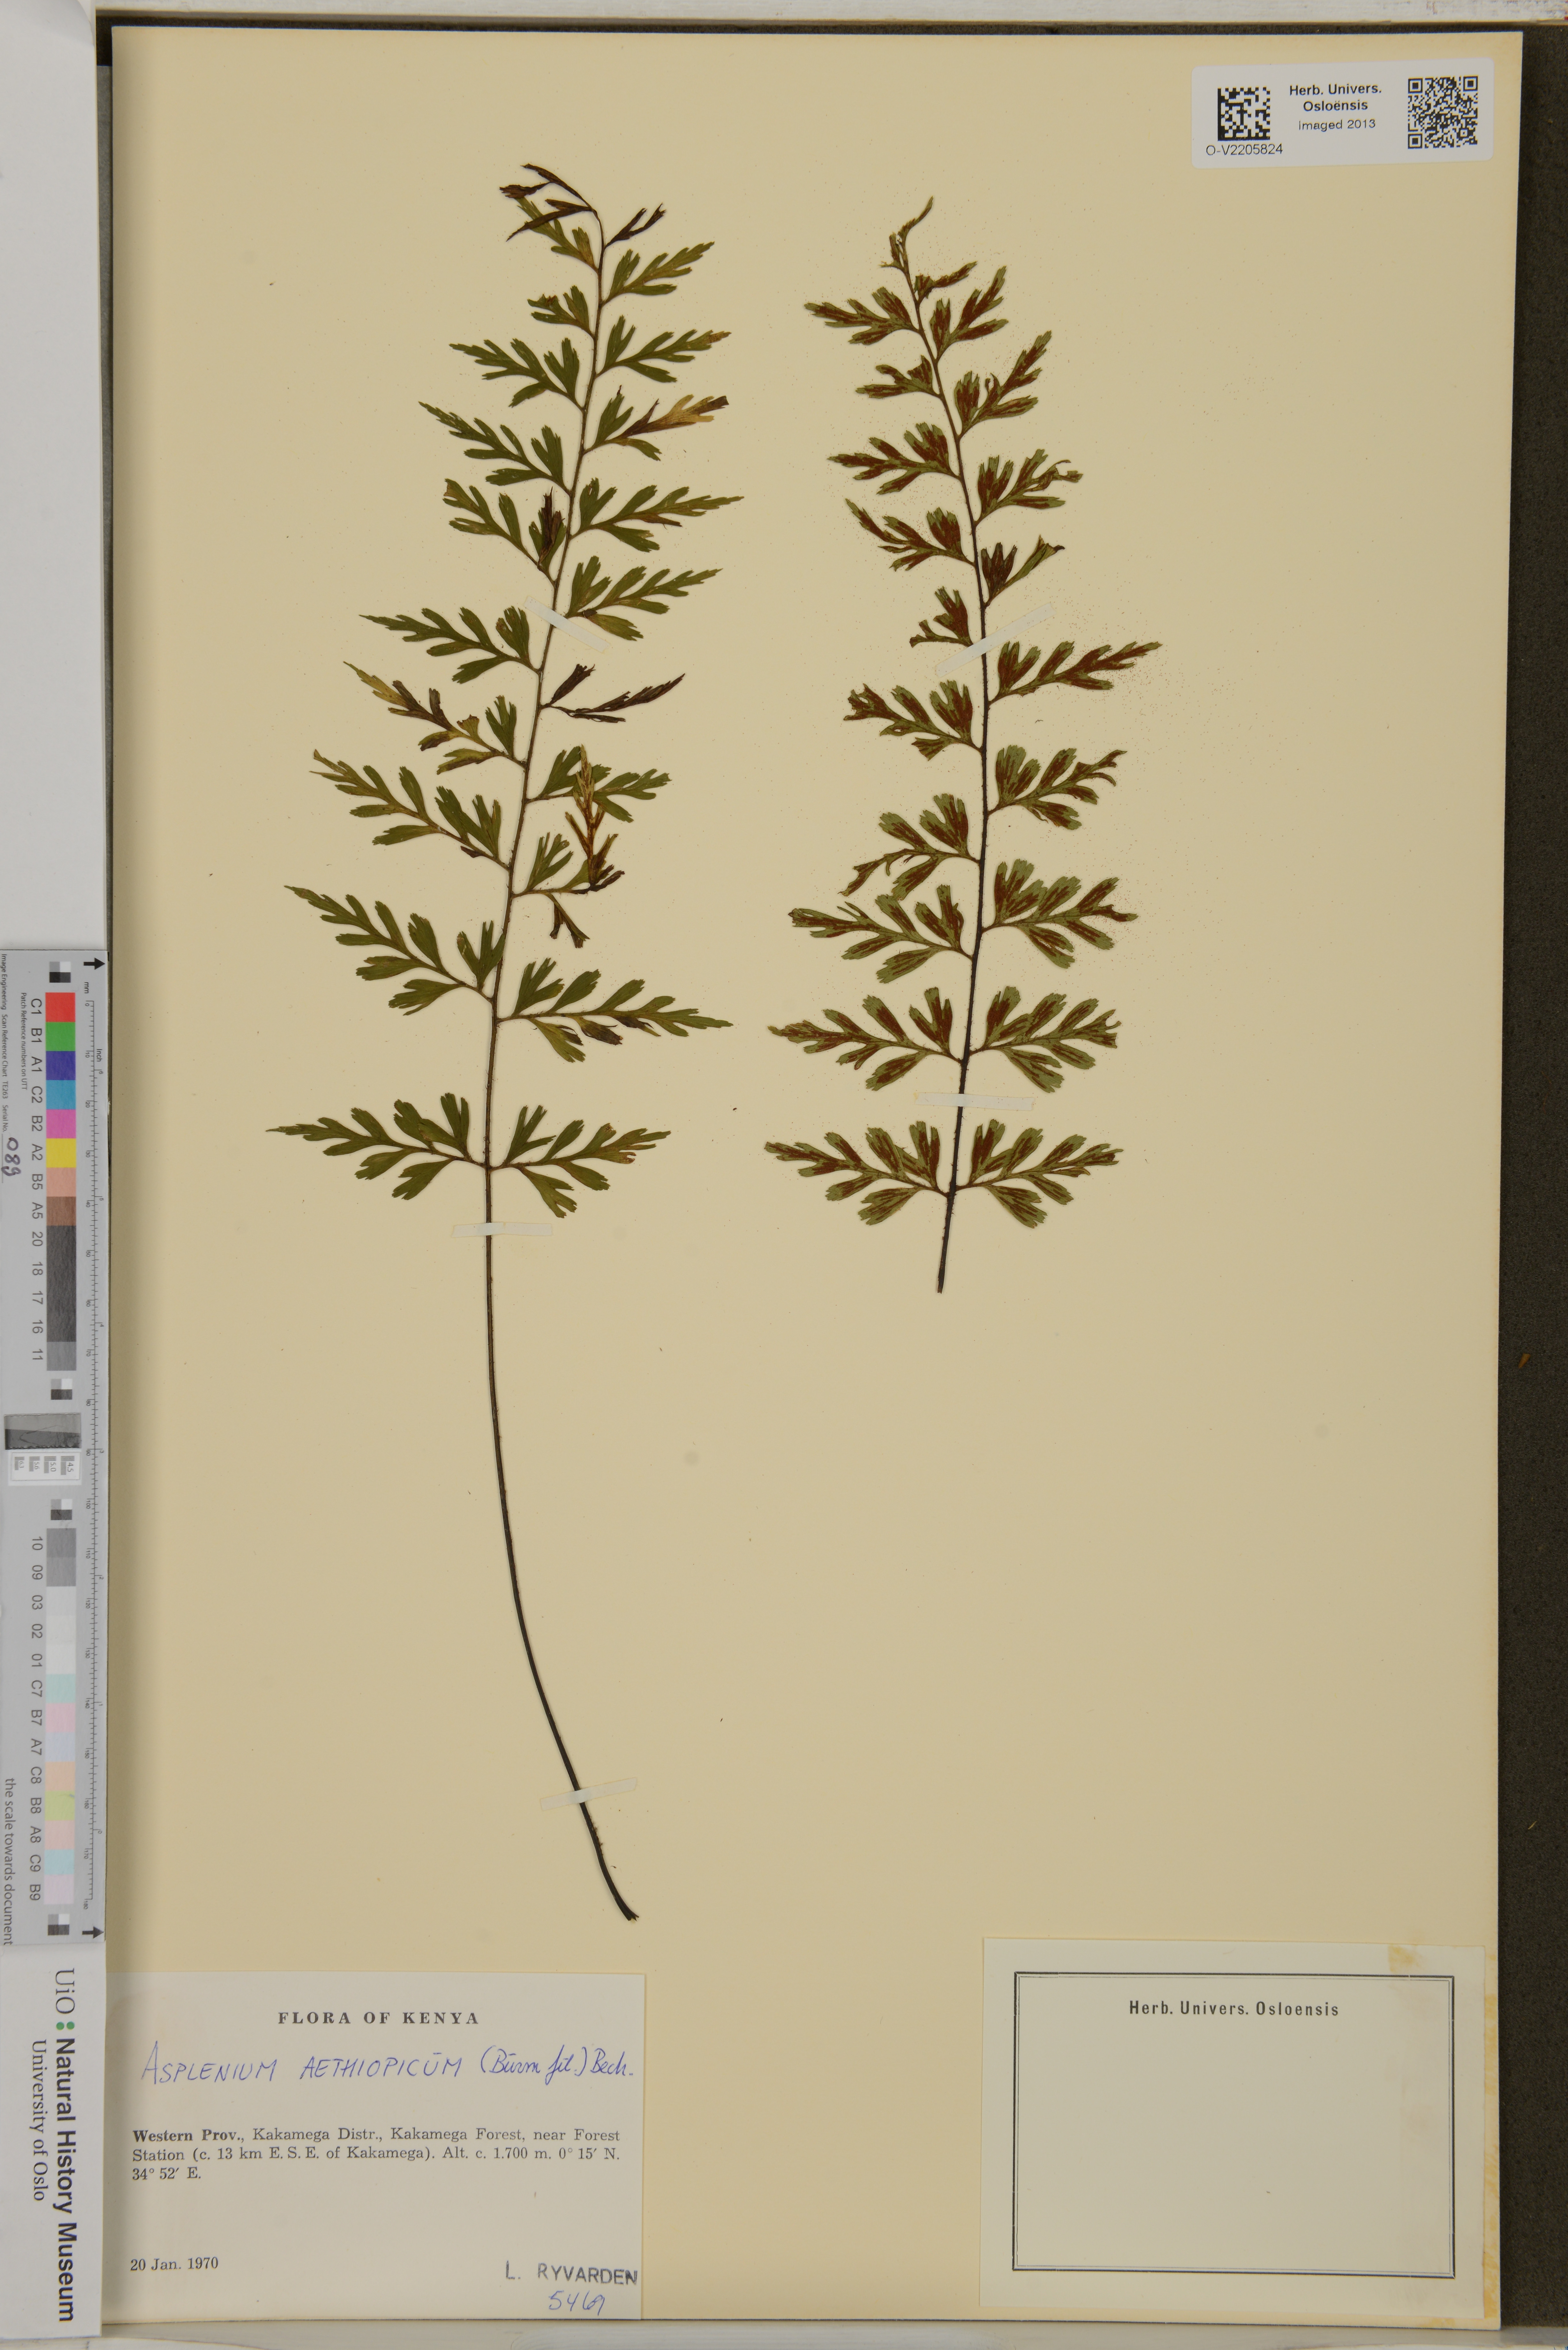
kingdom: Plantae
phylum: Tracheophyta
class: Polypodiopsida
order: Polypodiales
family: Aspleniaceae
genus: Asplenium
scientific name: Asplenium aethiopicum
